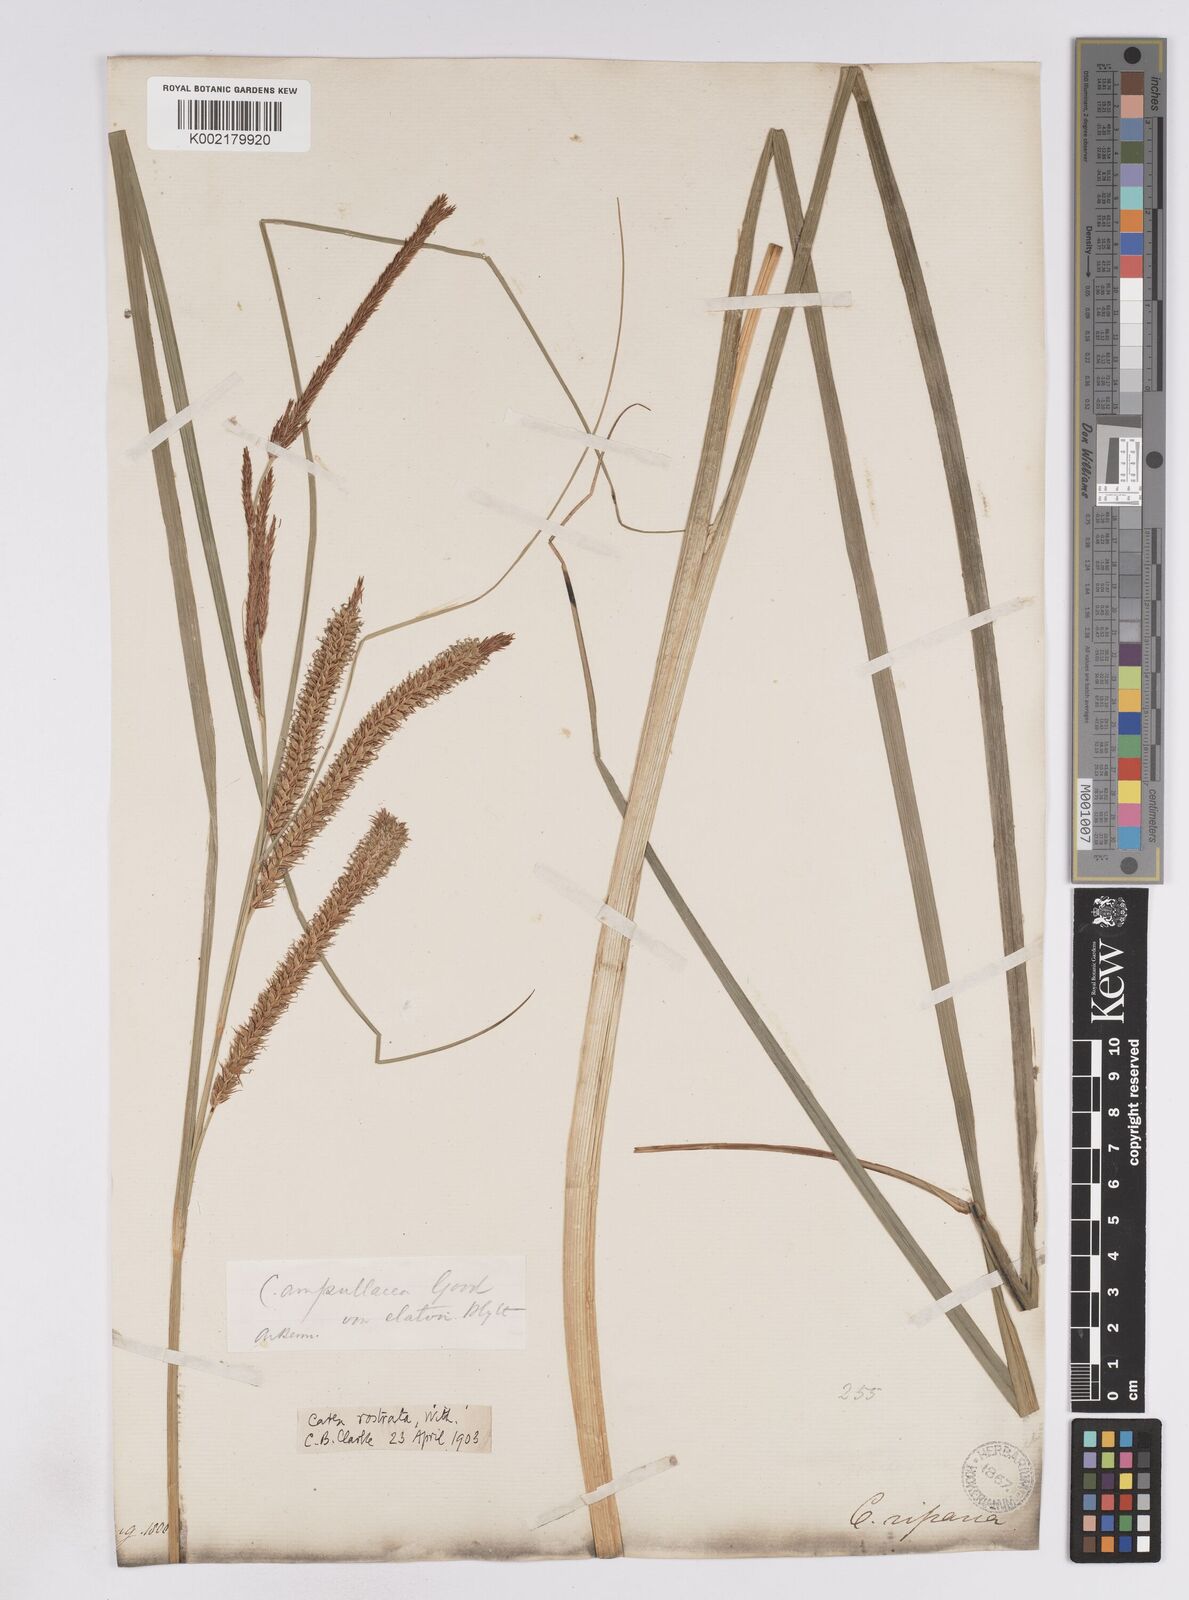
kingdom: Plantae
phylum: Tracheophyta
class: Liliopsida
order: Poales
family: Cyperaceae
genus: Carex
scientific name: Carex rostrata
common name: Bottle sedge
